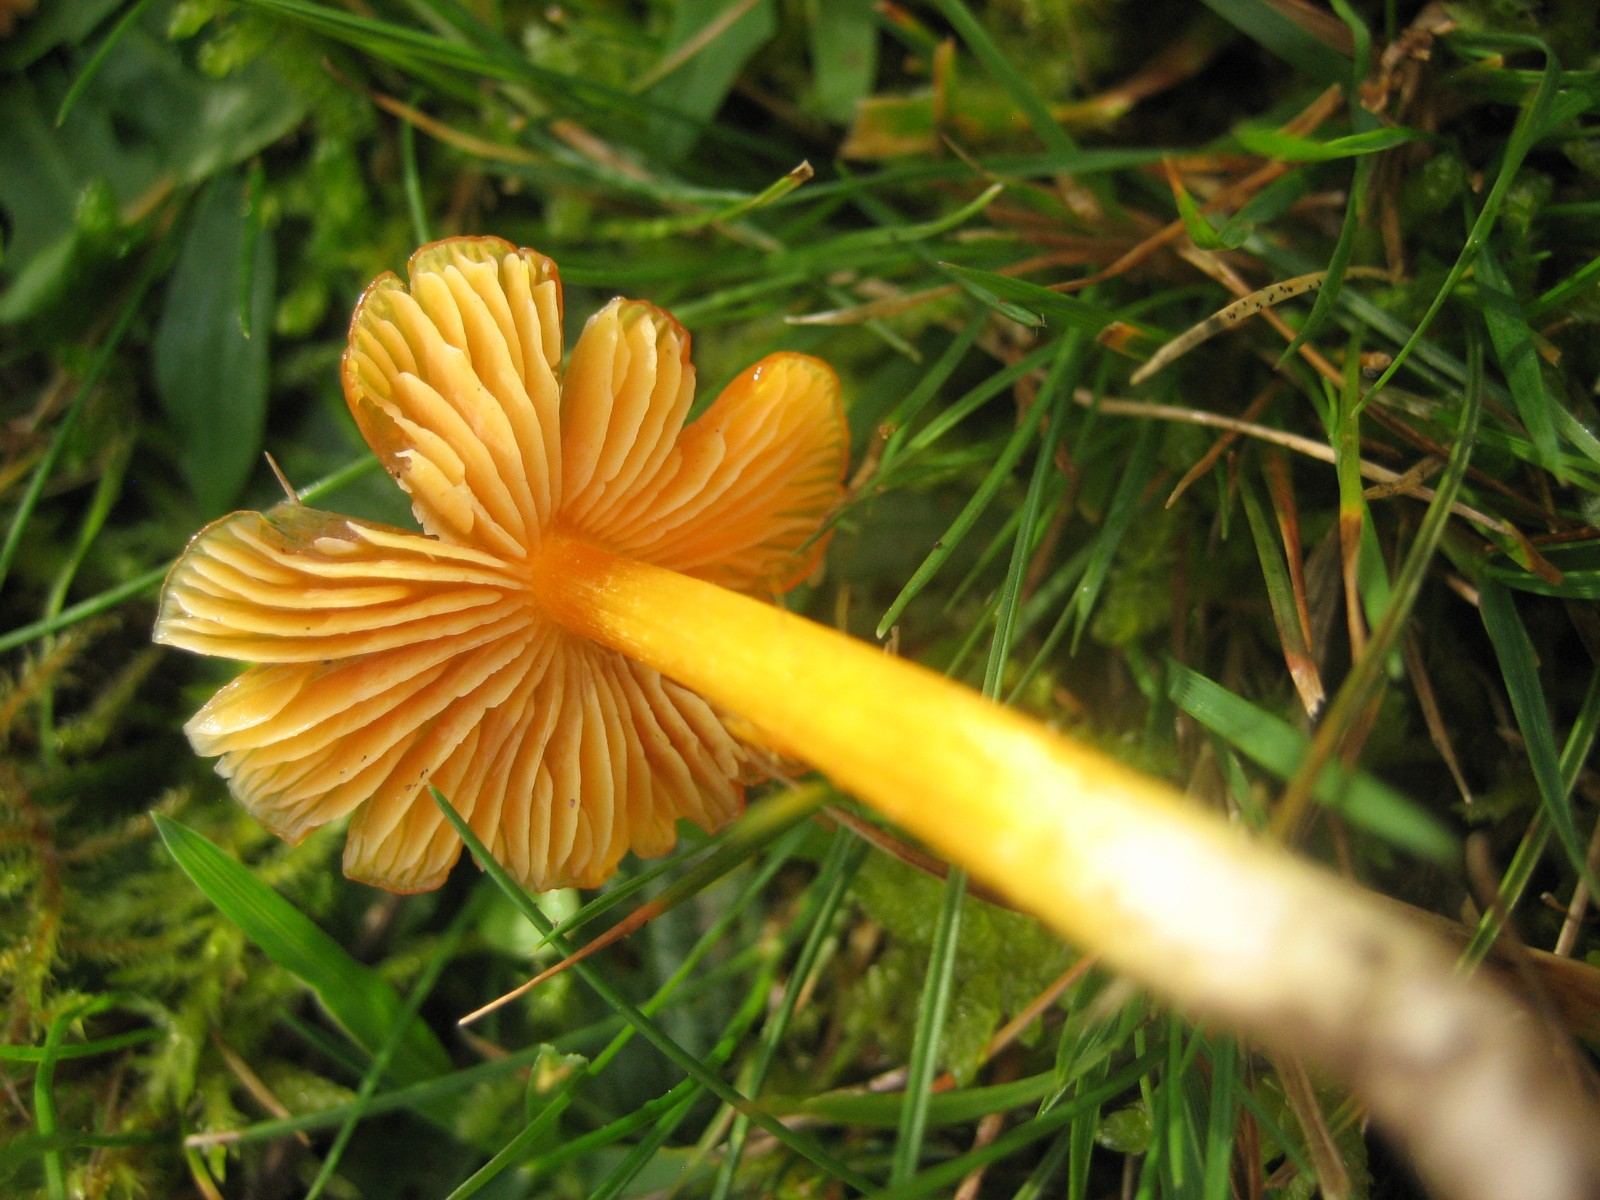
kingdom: Fungi
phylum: Basidiomycota
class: Agaricomycetes
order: Agaricales
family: Hygrophoraceae
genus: Hygrocybe
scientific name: Hygrocybe
